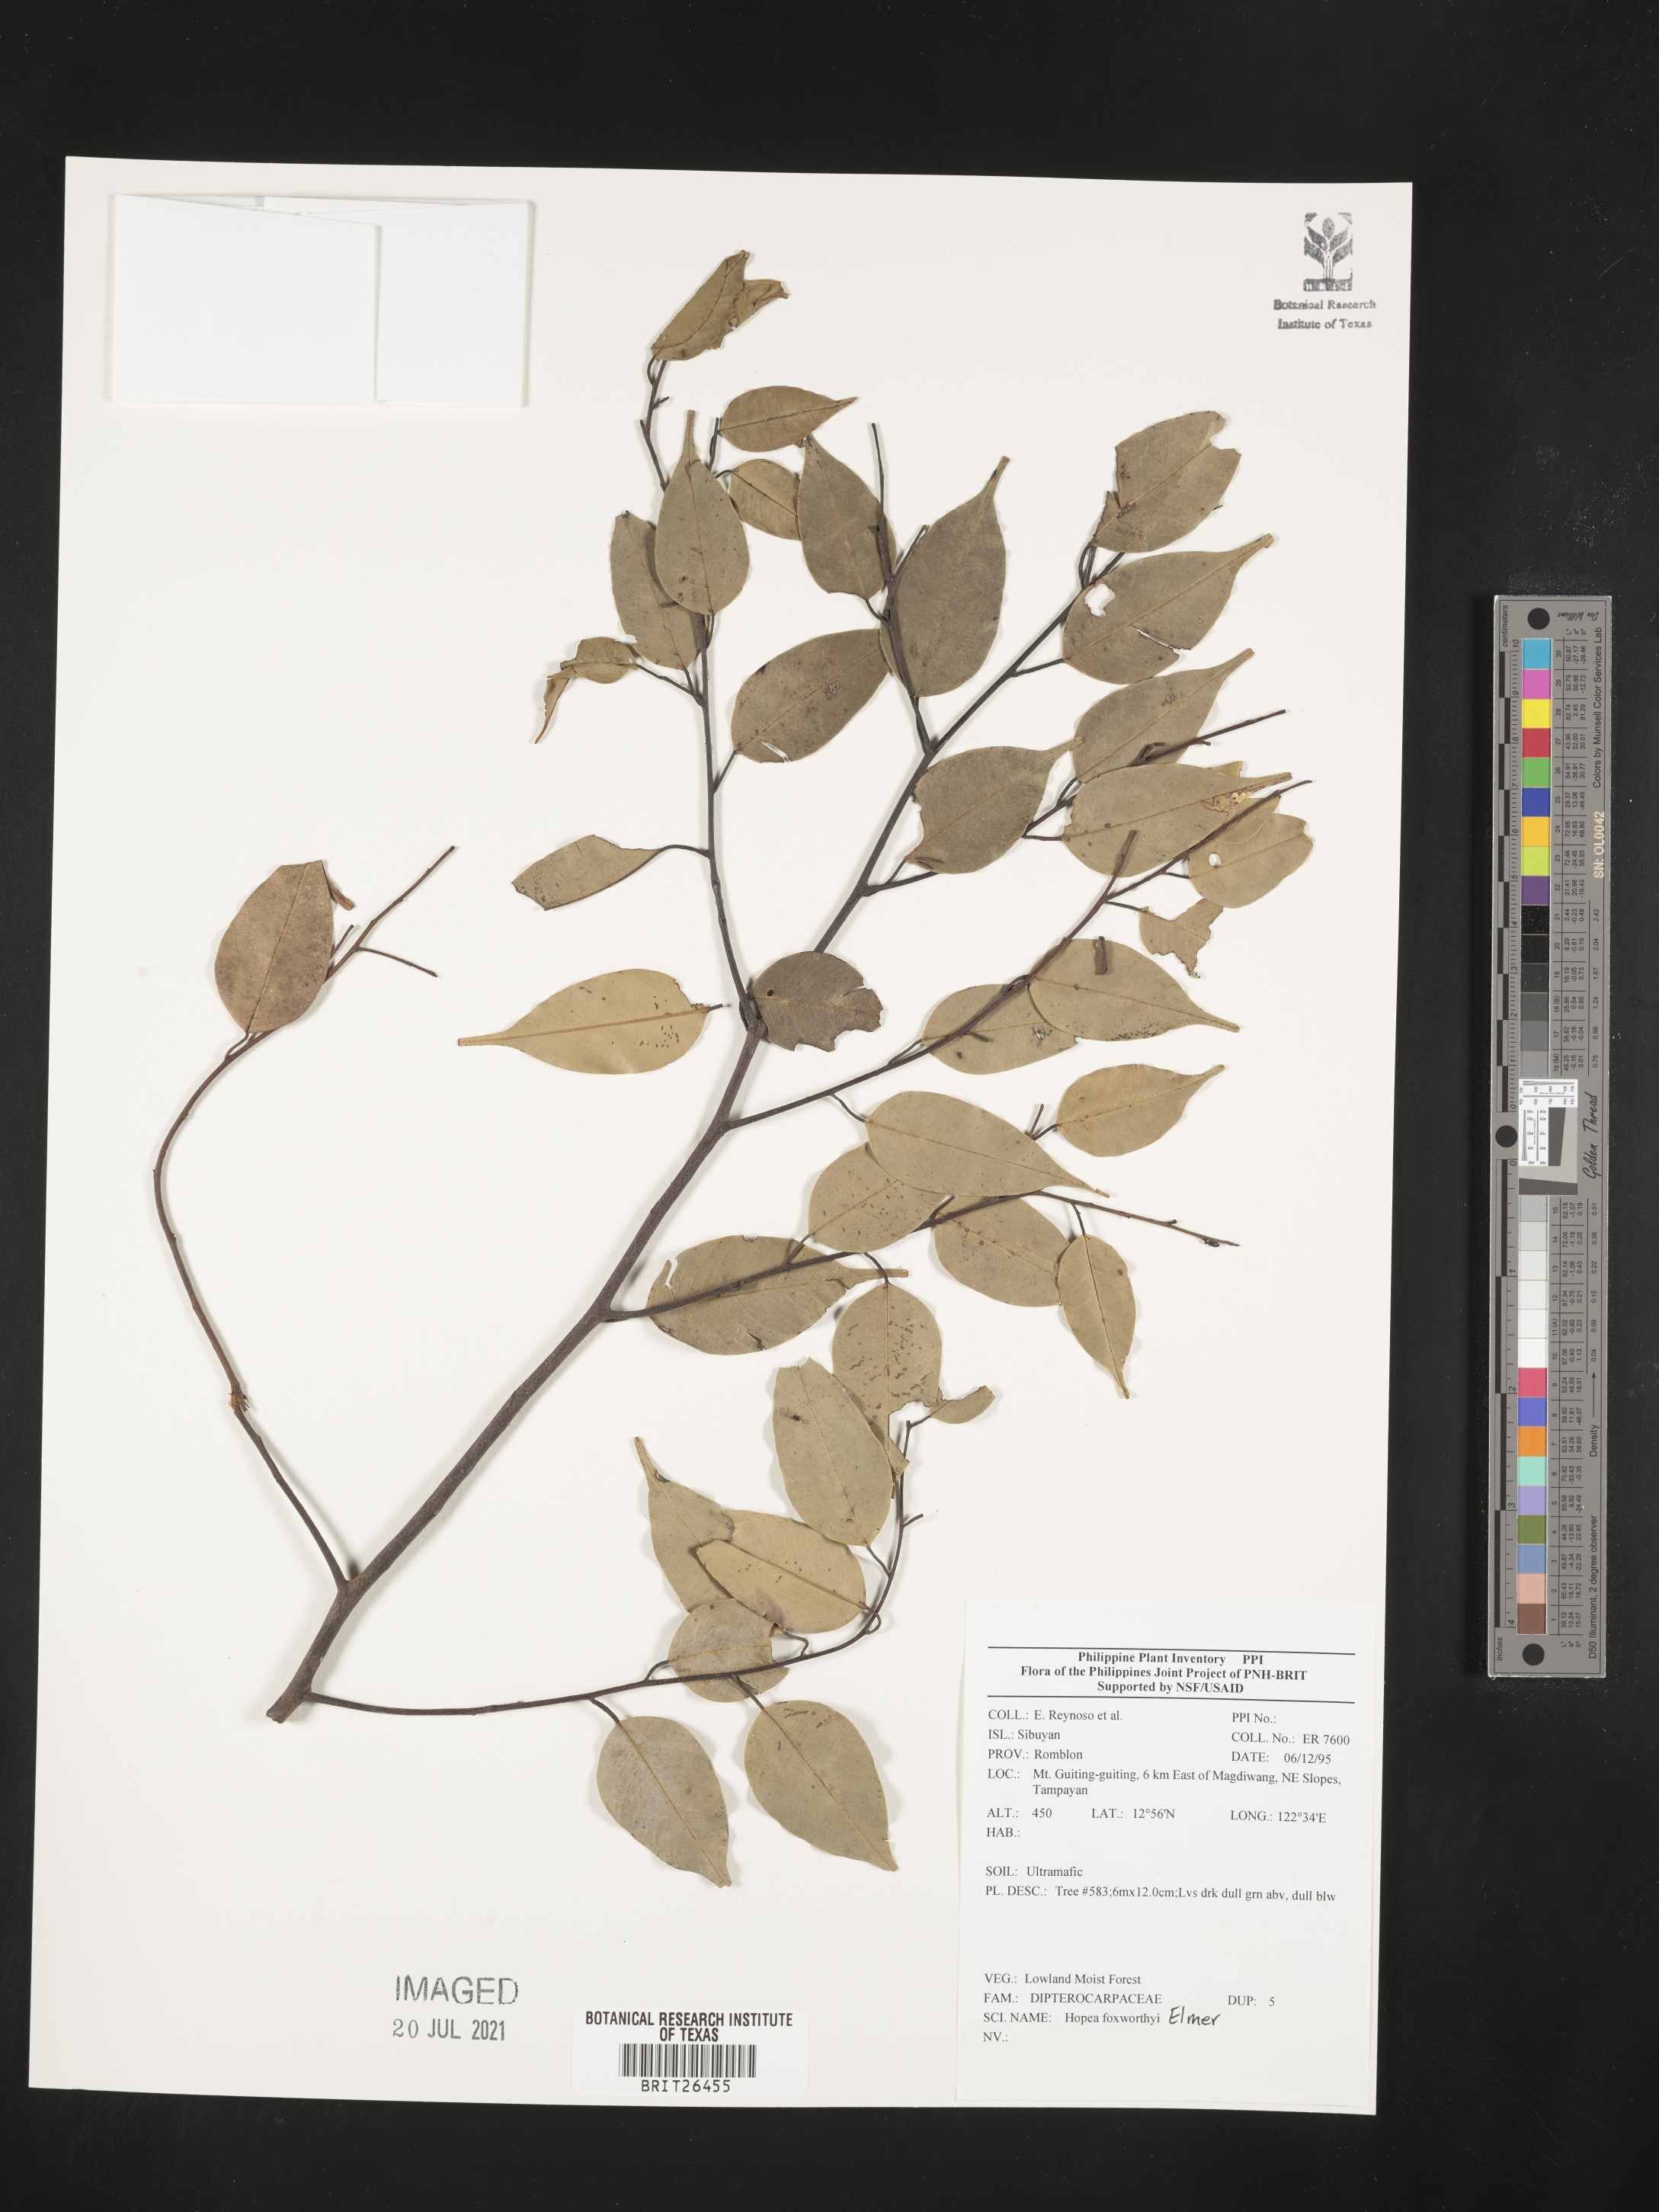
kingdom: Plantae
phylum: Tracheophyta
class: Magnoliopsida
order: Malvales
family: Dipterocarpaceae
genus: Hopea
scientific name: Hopea foxworthyi
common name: Dalingdingan
